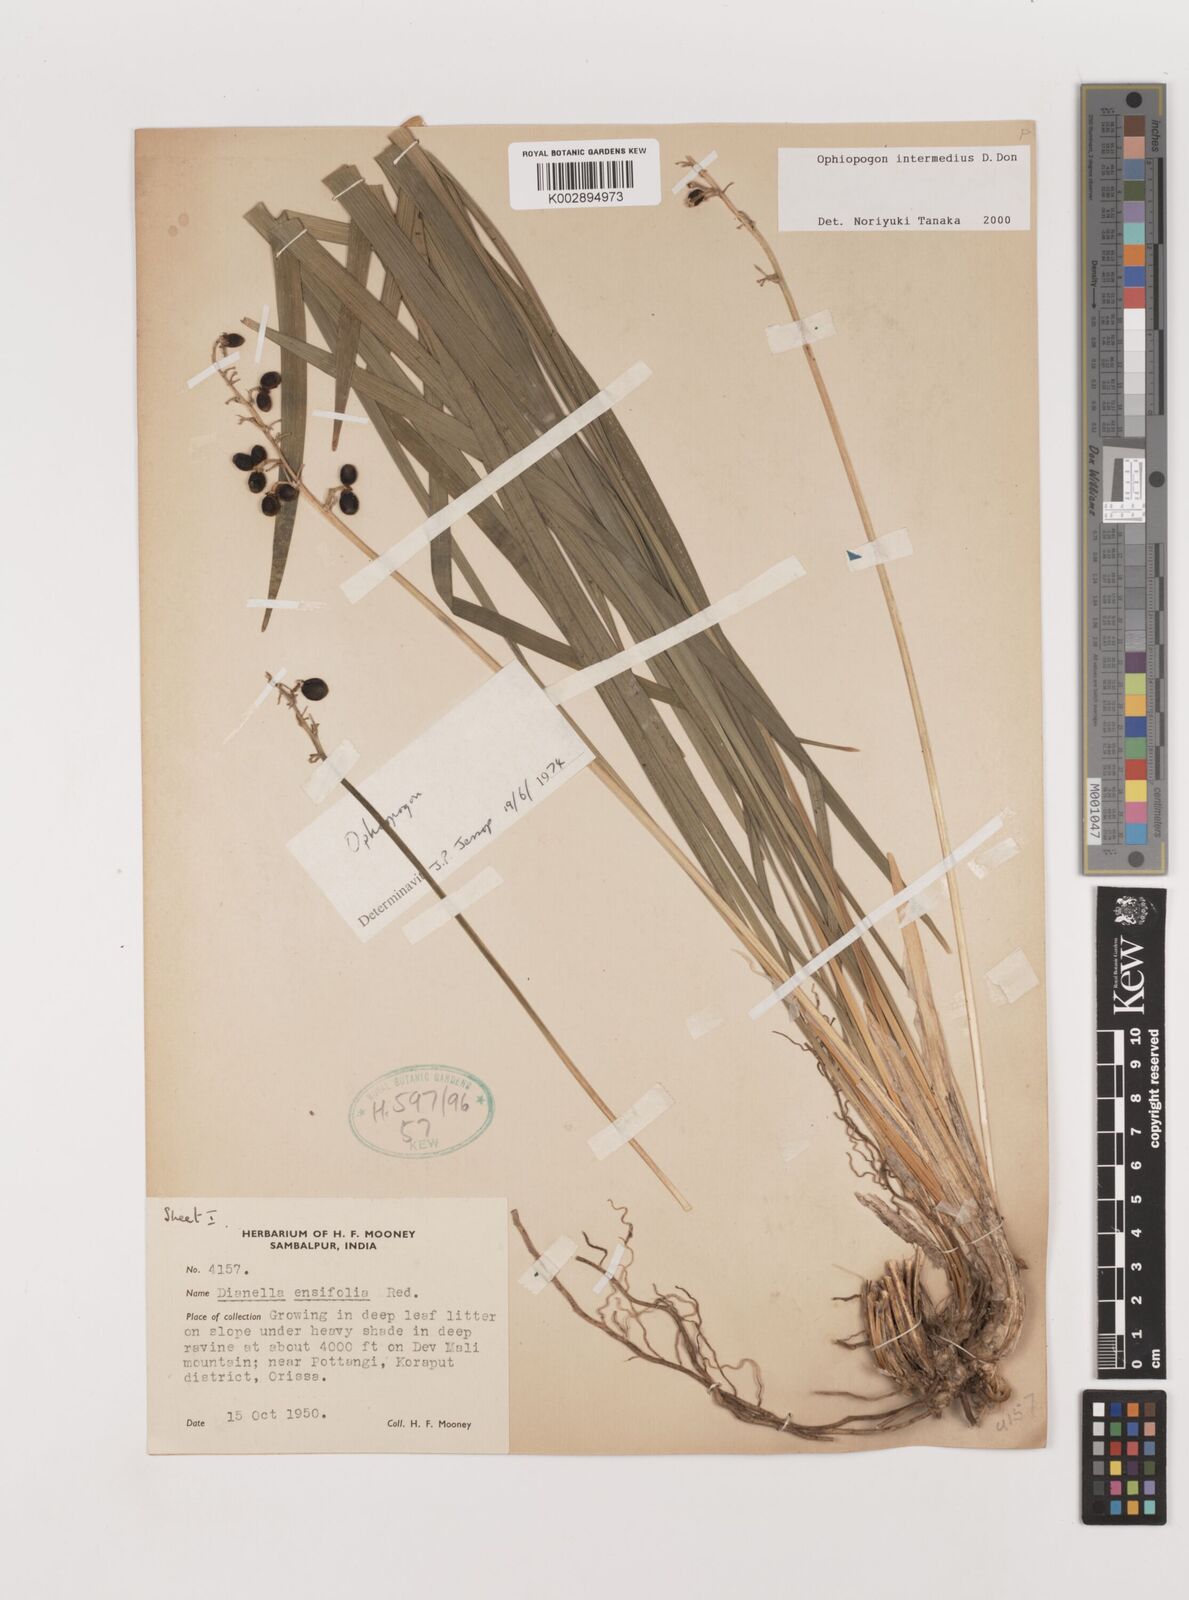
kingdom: Plantae
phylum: Tracheophyta
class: Liliopsida
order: Asparagales
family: Asparagaceae
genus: Ophiopogon
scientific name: Ophiopogon intermedius
